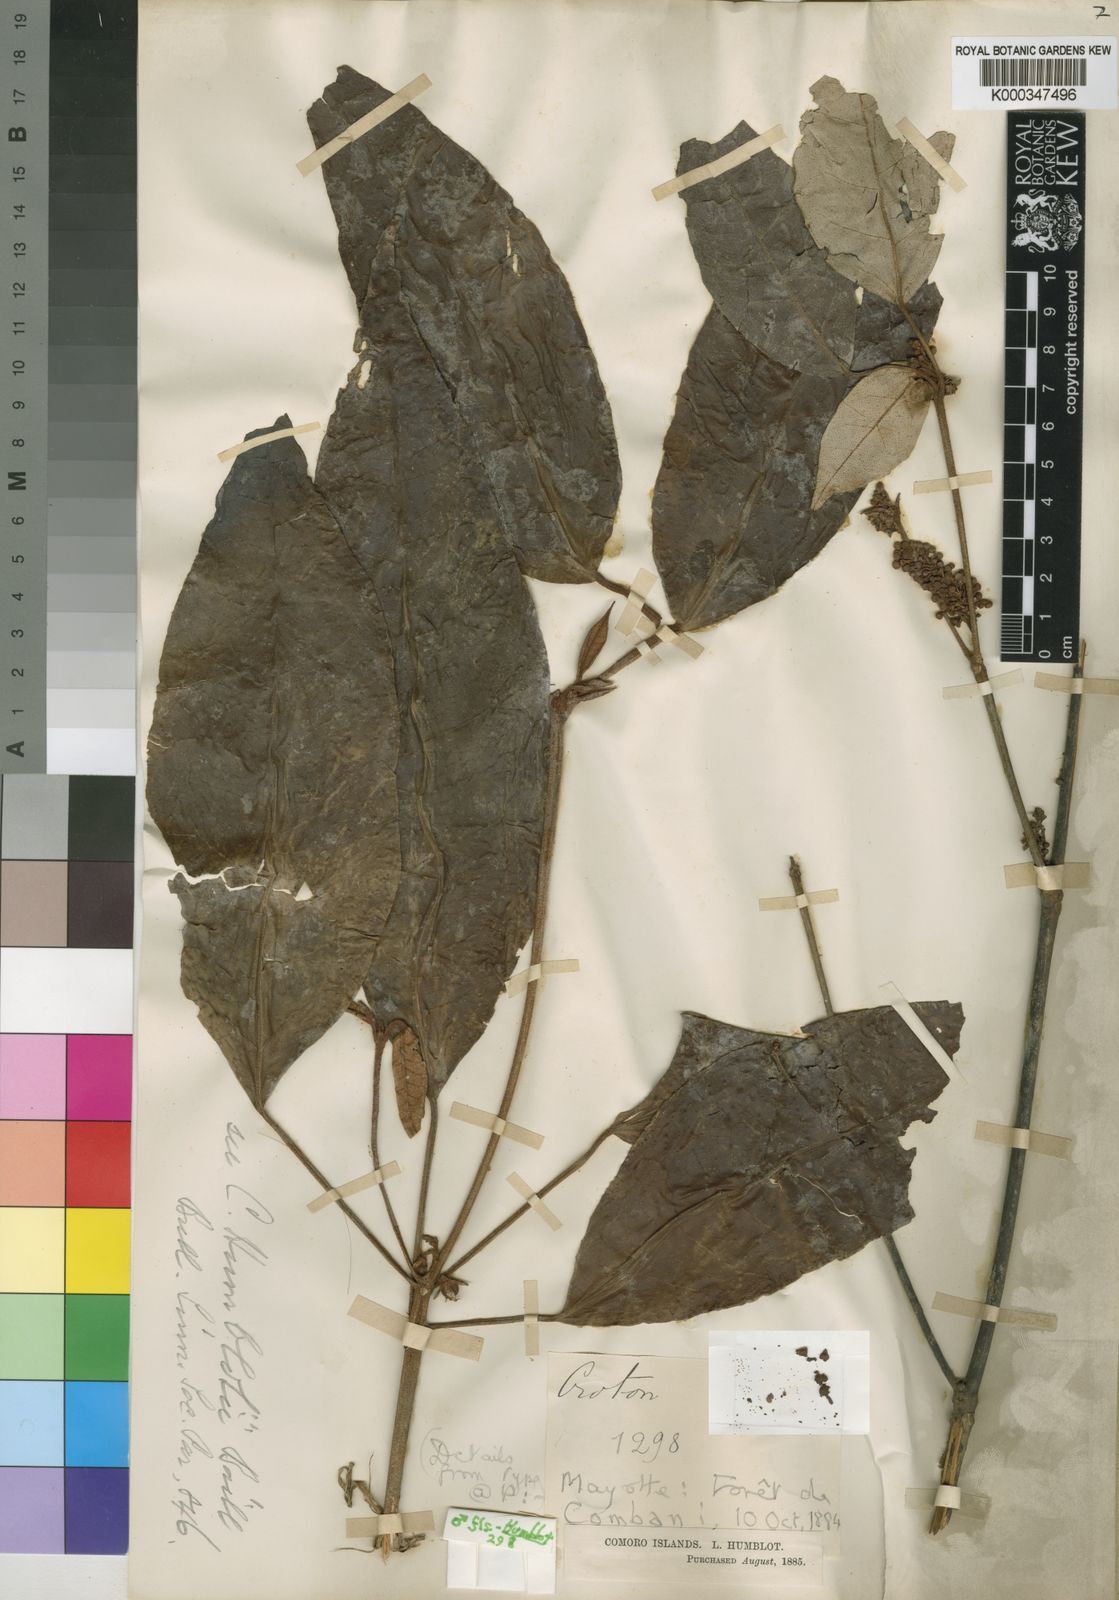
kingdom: Plantae
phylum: Tracheophyta
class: Magnoliopsida
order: Malpighiales
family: Euphorbiaceae
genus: Croton
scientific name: Croton humblotii
